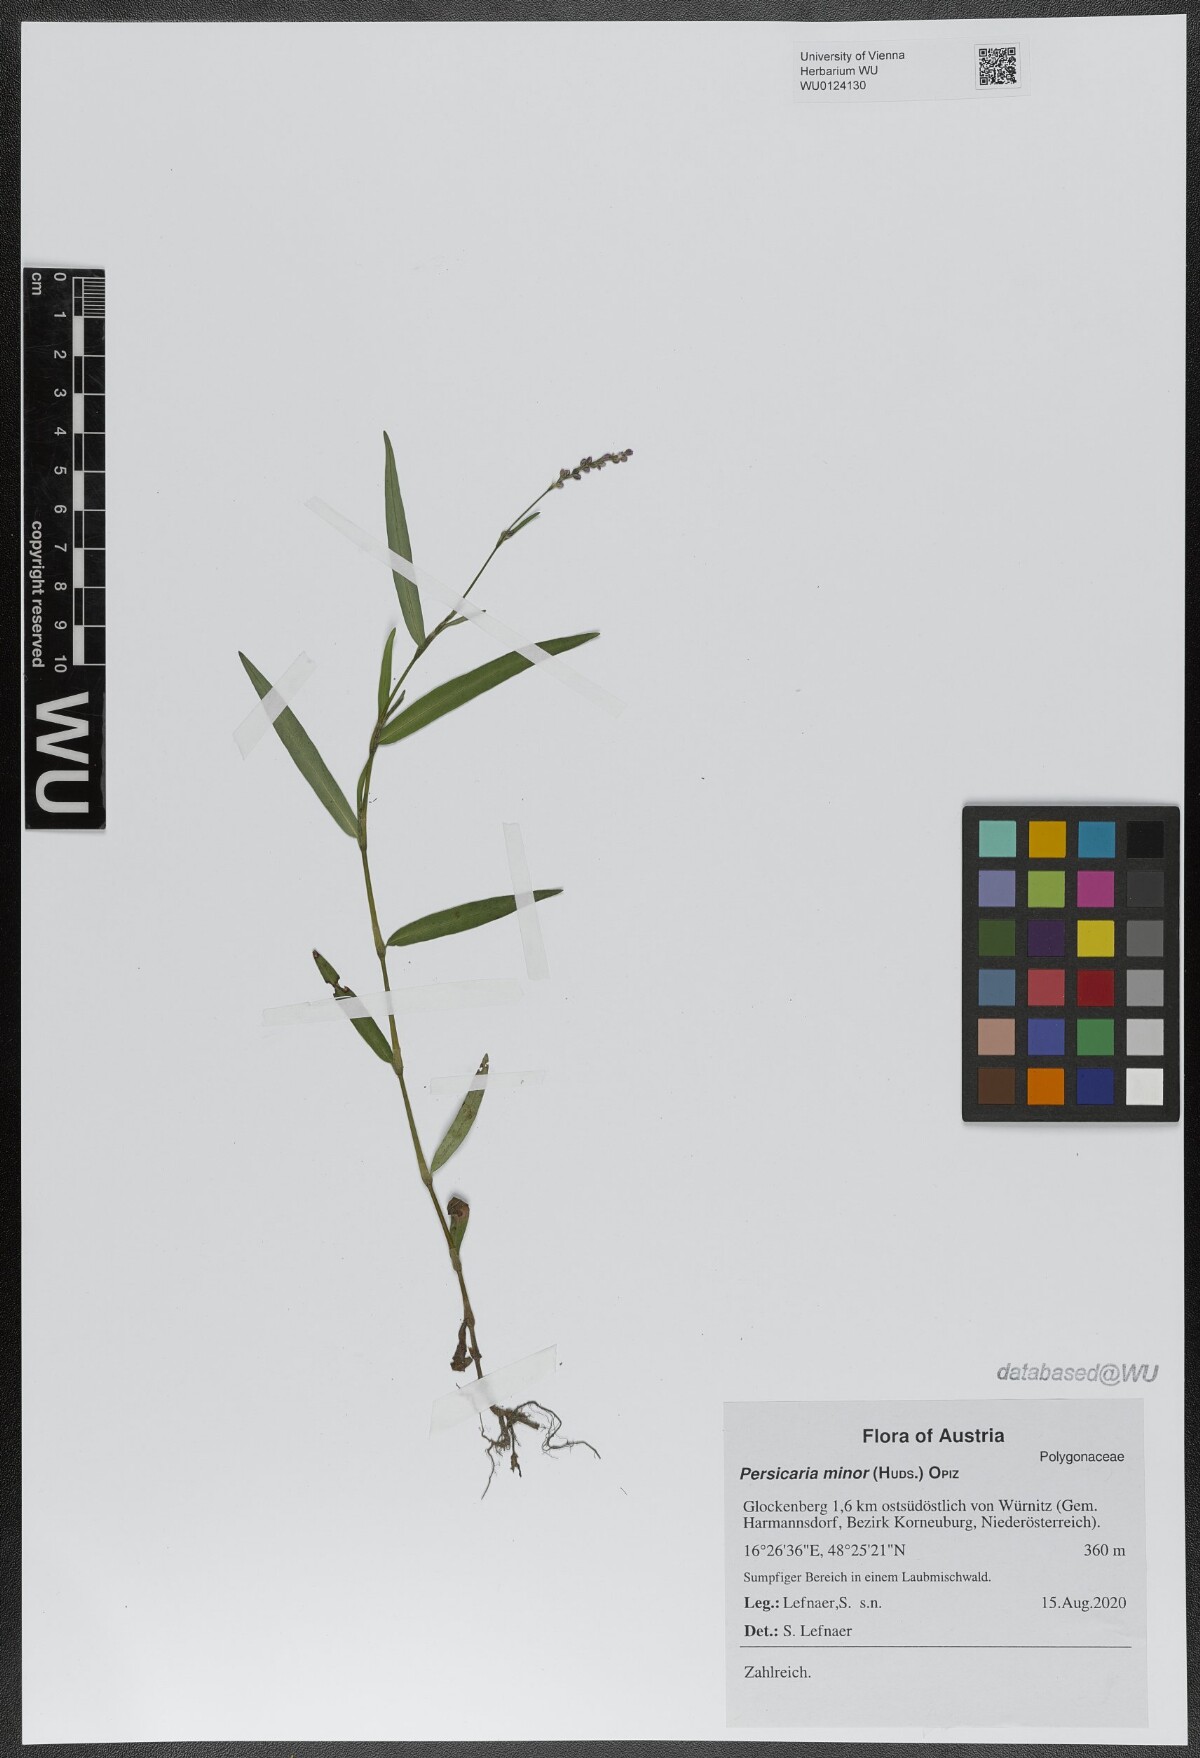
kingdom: Plantae
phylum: Tracheophyta
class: Magnoliopsida
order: Caryophyllales
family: Polygonaceae
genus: Persicaria
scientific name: Persicaria minor
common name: Small water-pepper
